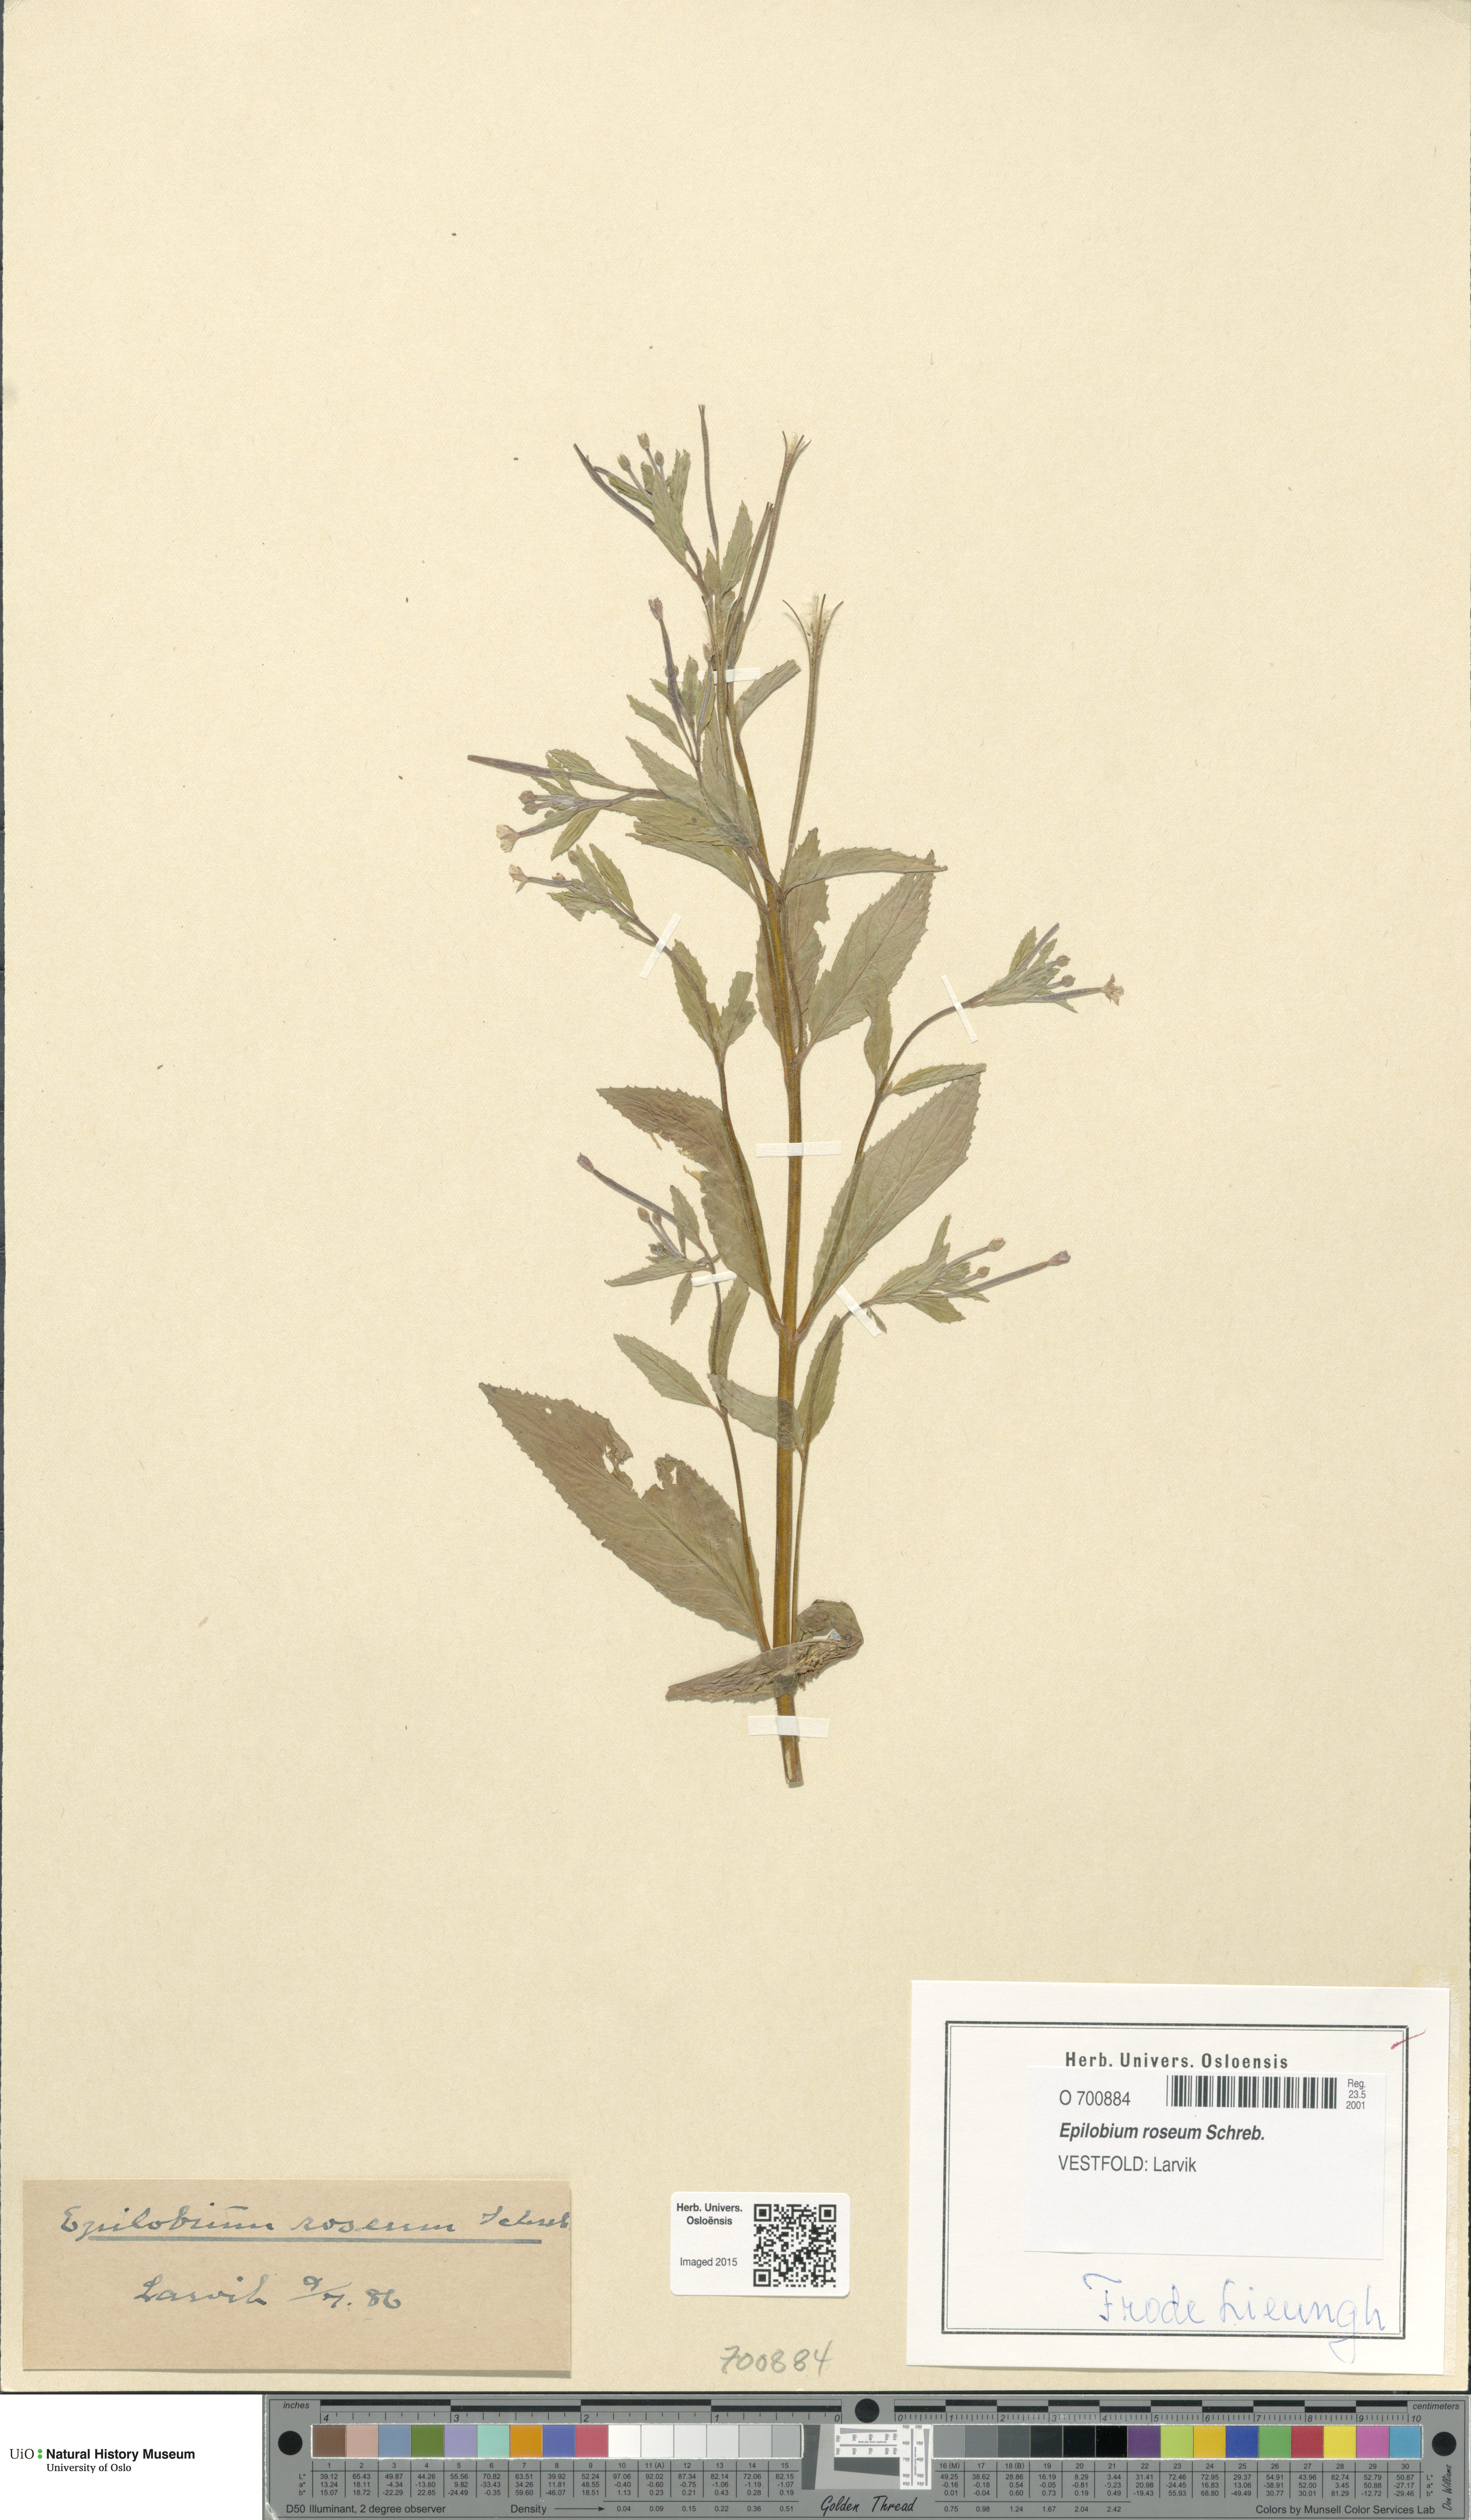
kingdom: Plantae
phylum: Tracheophyta
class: Magnoliopsida
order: Myrtales
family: Onagraceae
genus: Epilobium
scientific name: Epilobium roseum
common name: Pale willowherb
